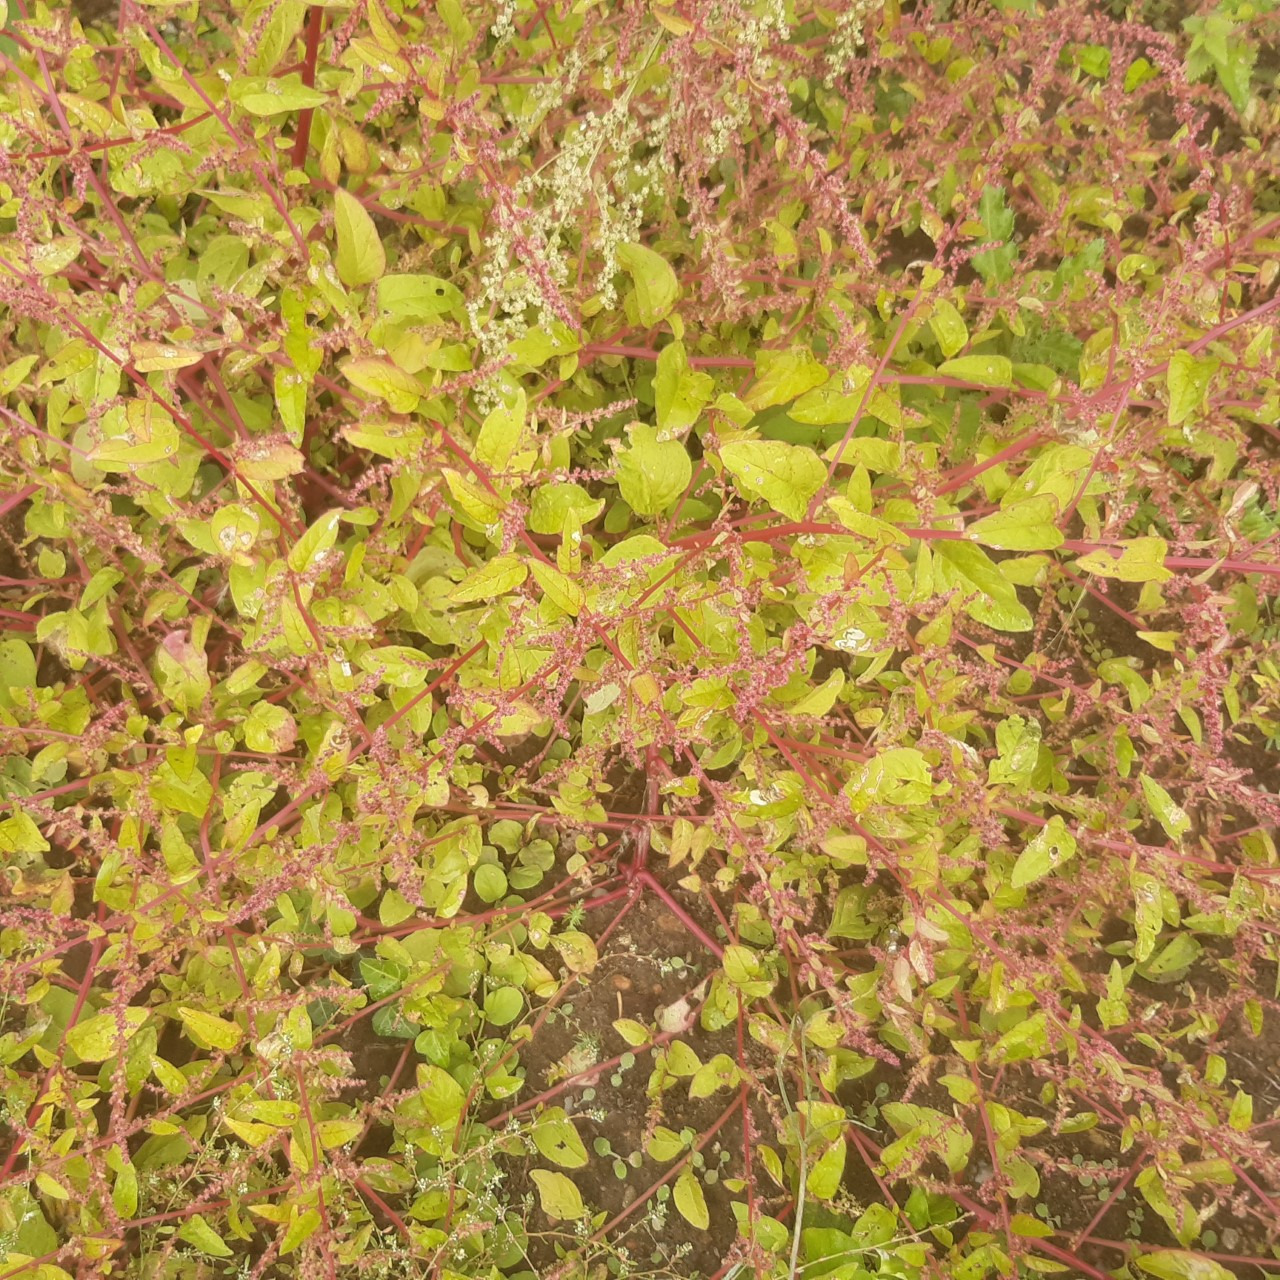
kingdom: Plantae
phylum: Tracheophyta
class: Magnoliopsida
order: Caryophyllales
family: Amaranthaceae
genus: Lipandra
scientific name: Lipandra polysperma
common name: Mangefrøet gåsefod
